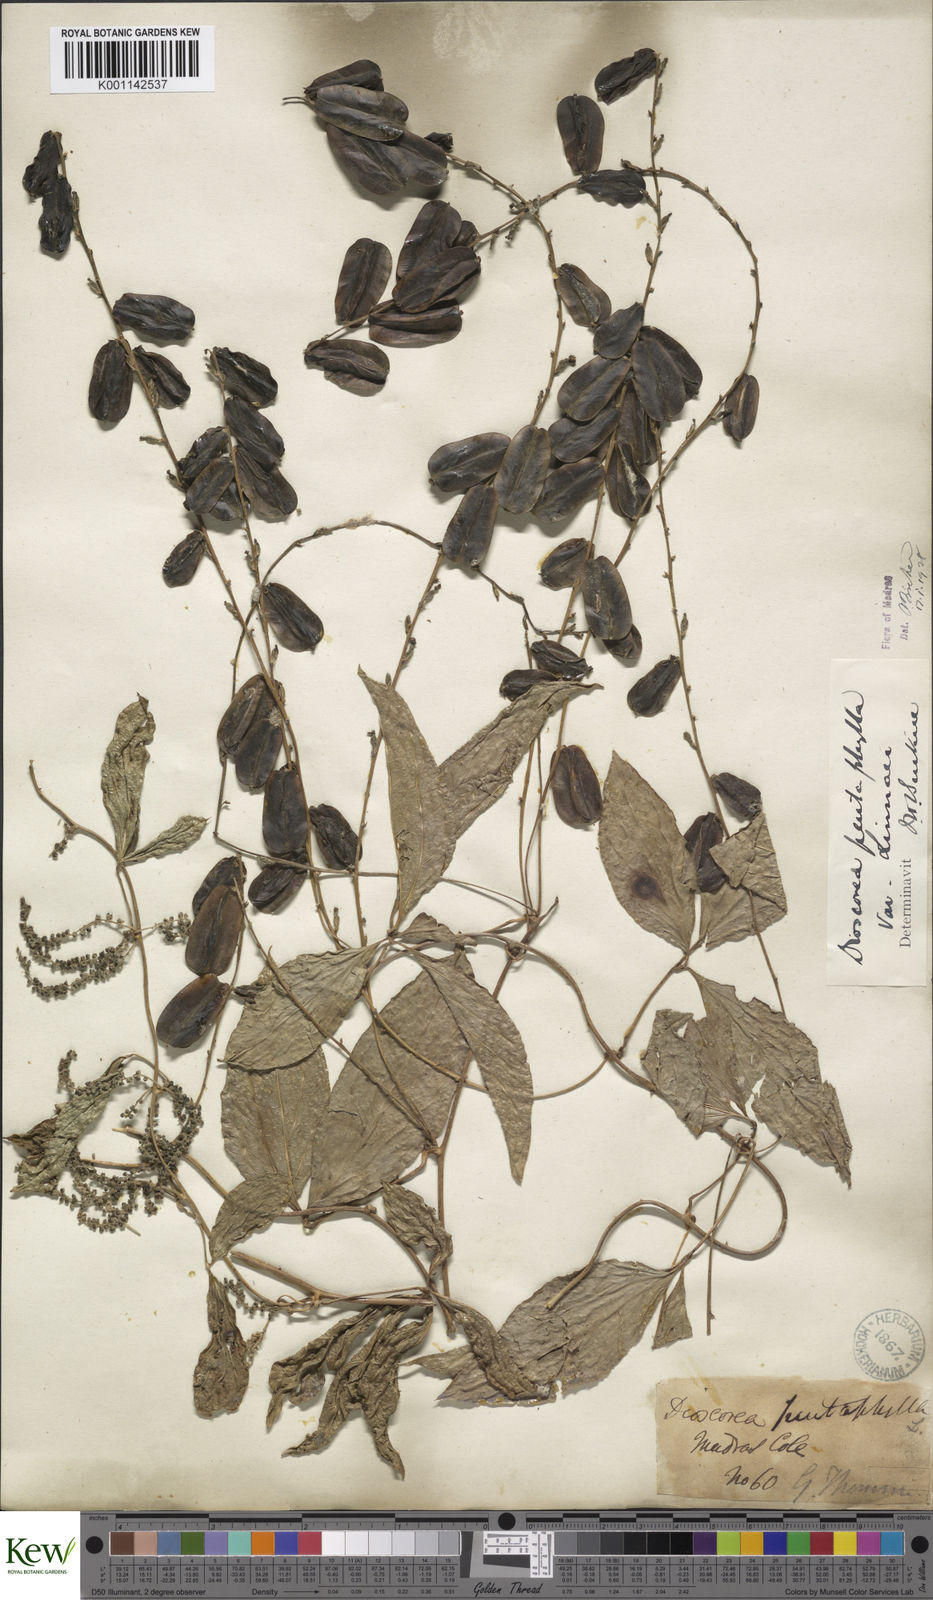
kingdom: Plantae
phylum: Tracheophyta
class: Liliopsida
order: Dioscoreales
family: Dioscoreaceae
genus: Dioscorea
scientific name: Dioscorea pentaphylla
